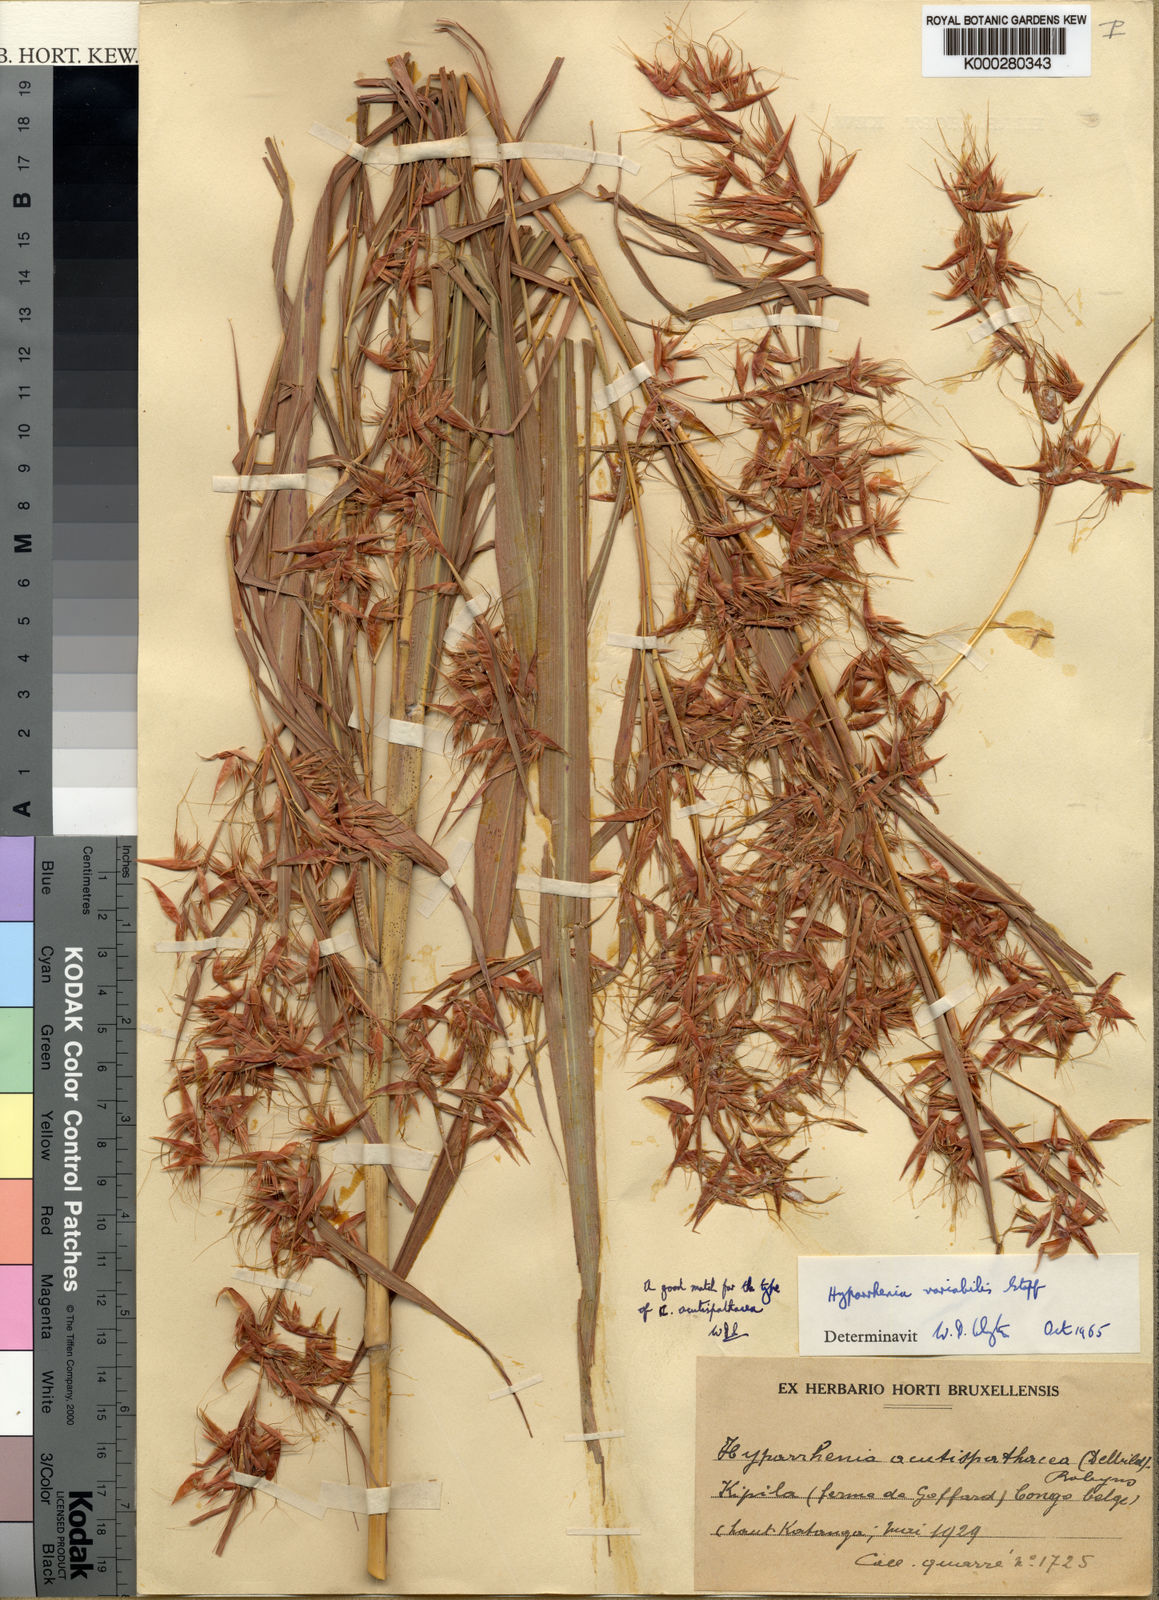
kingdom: Plantae
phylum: Tracheophyta
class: Liliopsida
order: Poales
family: Poaceae
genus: Hyparrhenia
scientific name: Hyparrhenia variabilis
